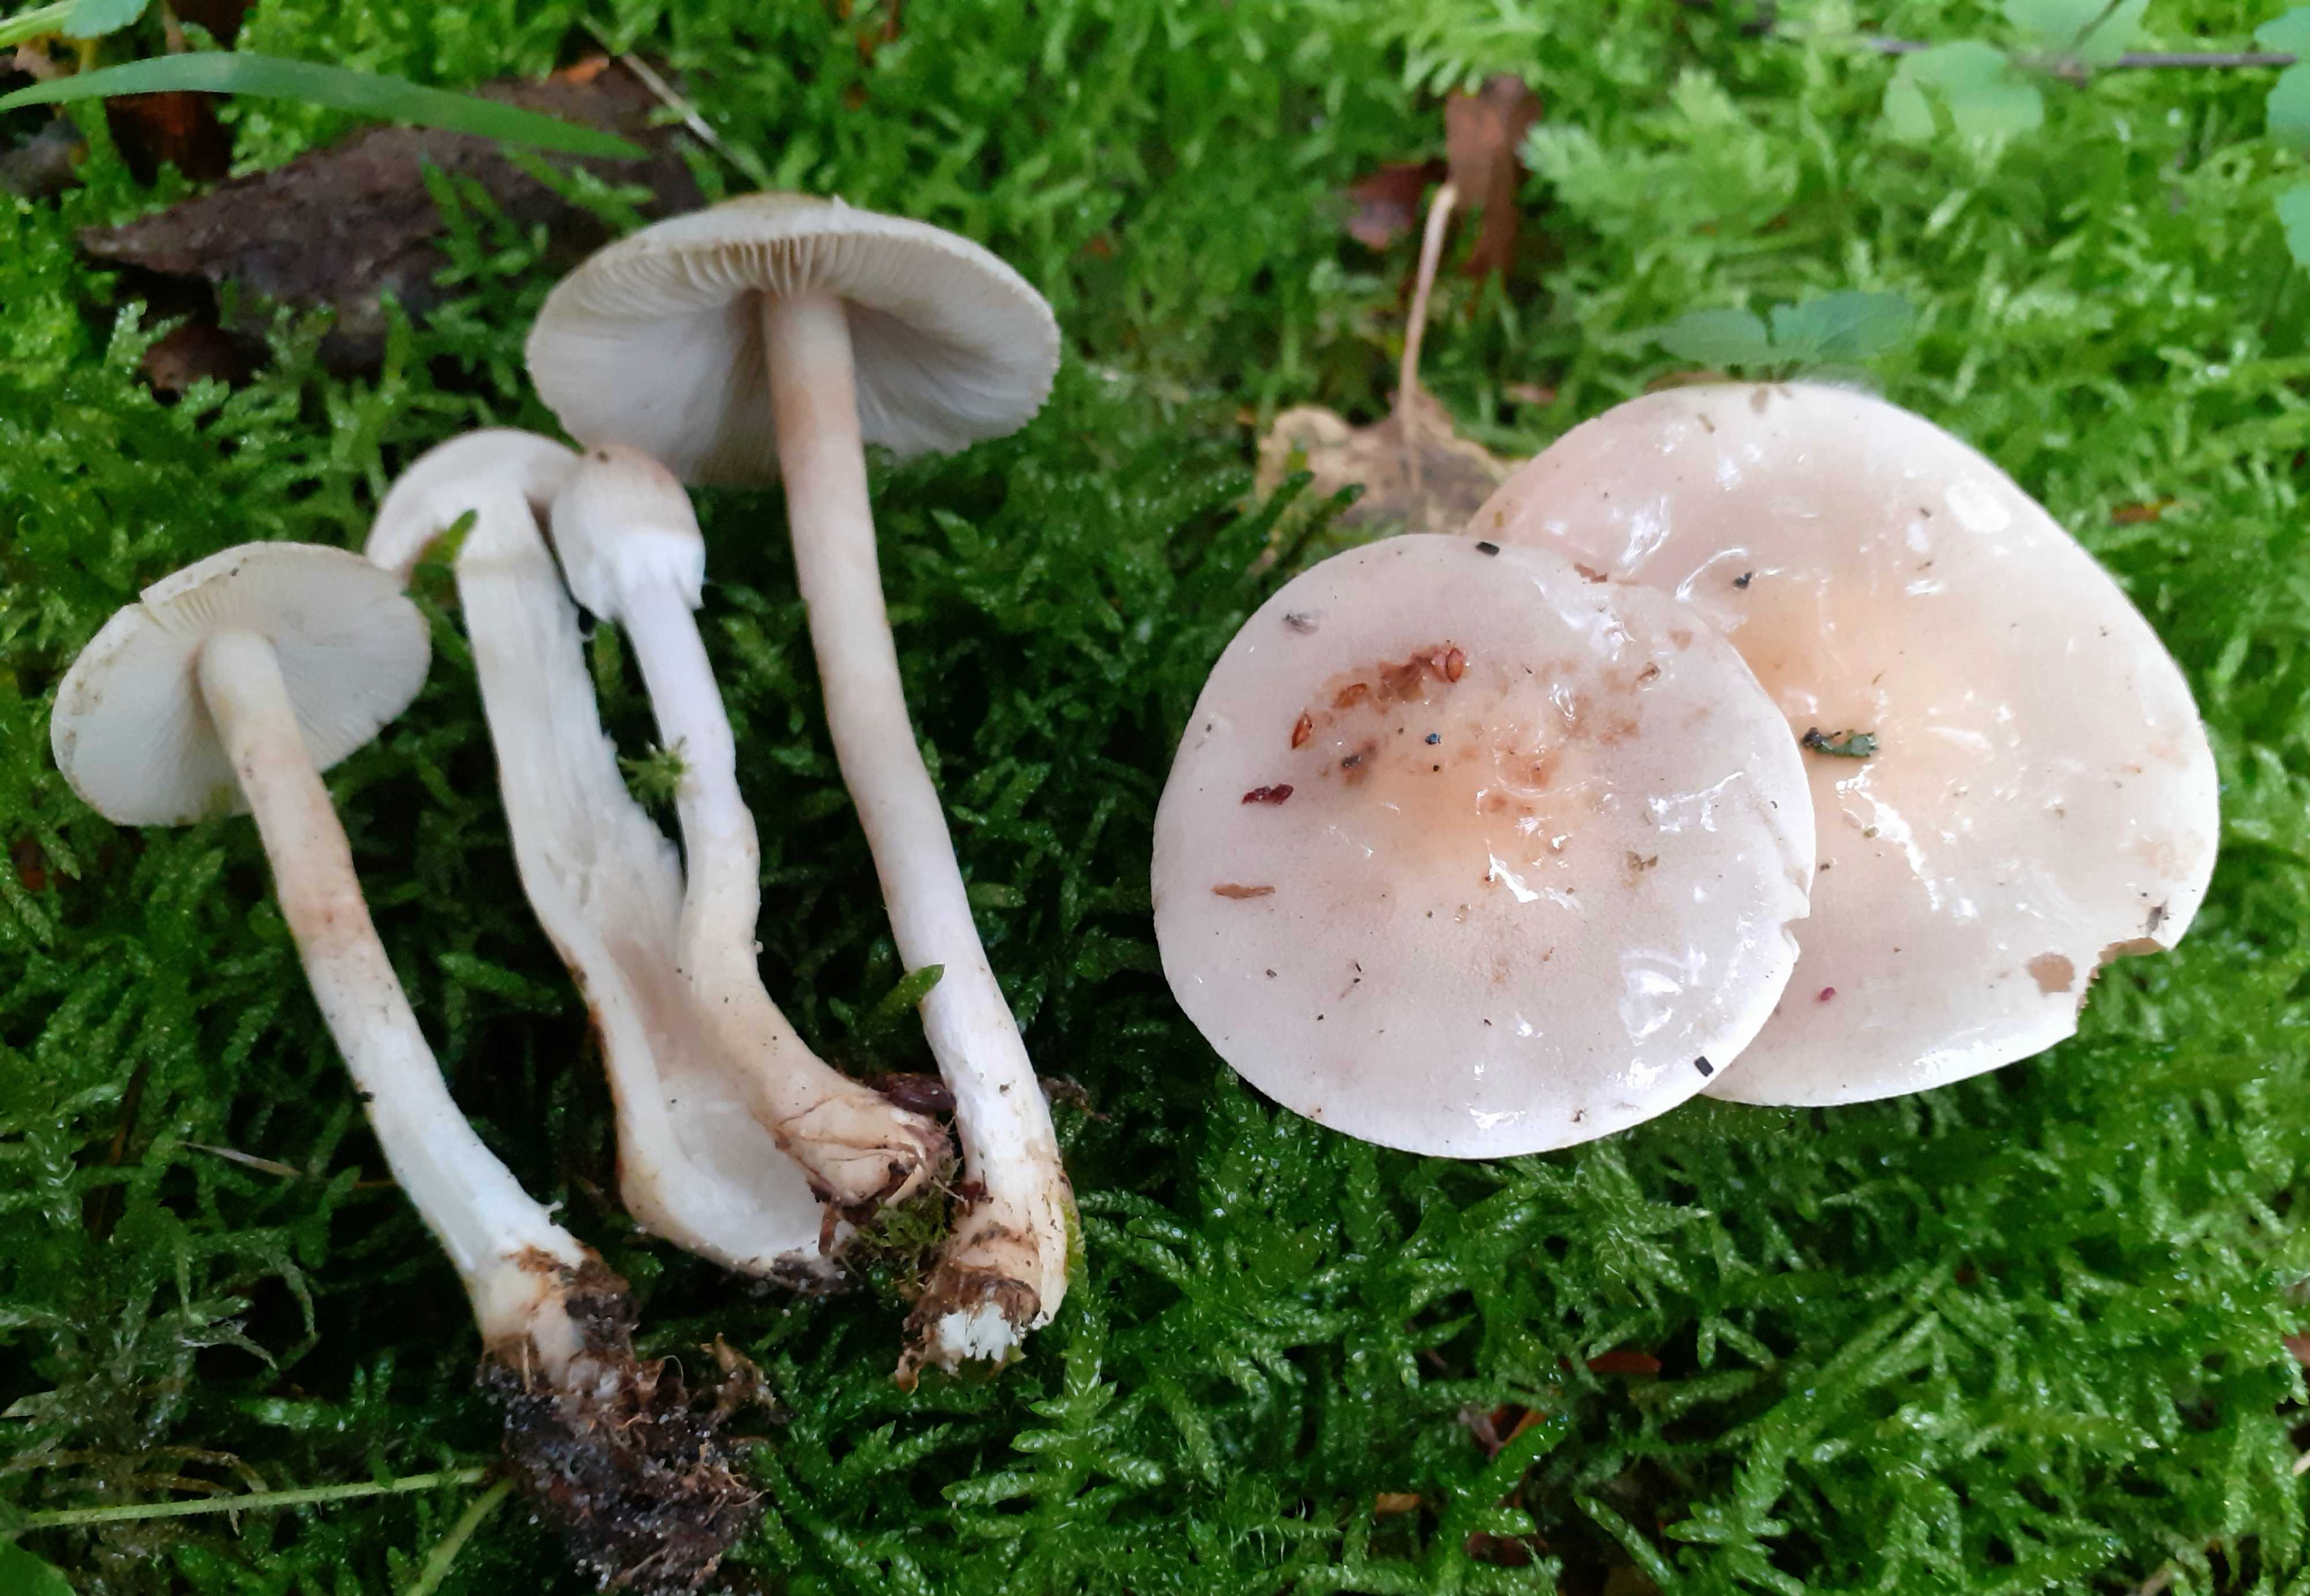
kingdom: Fungi
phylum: Basidiomycota
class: Agaricomycetes
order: Agaricales
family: Inocybaceae
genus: Inocybe
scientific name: Inocybe whitei
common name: Blushing fibrecap
